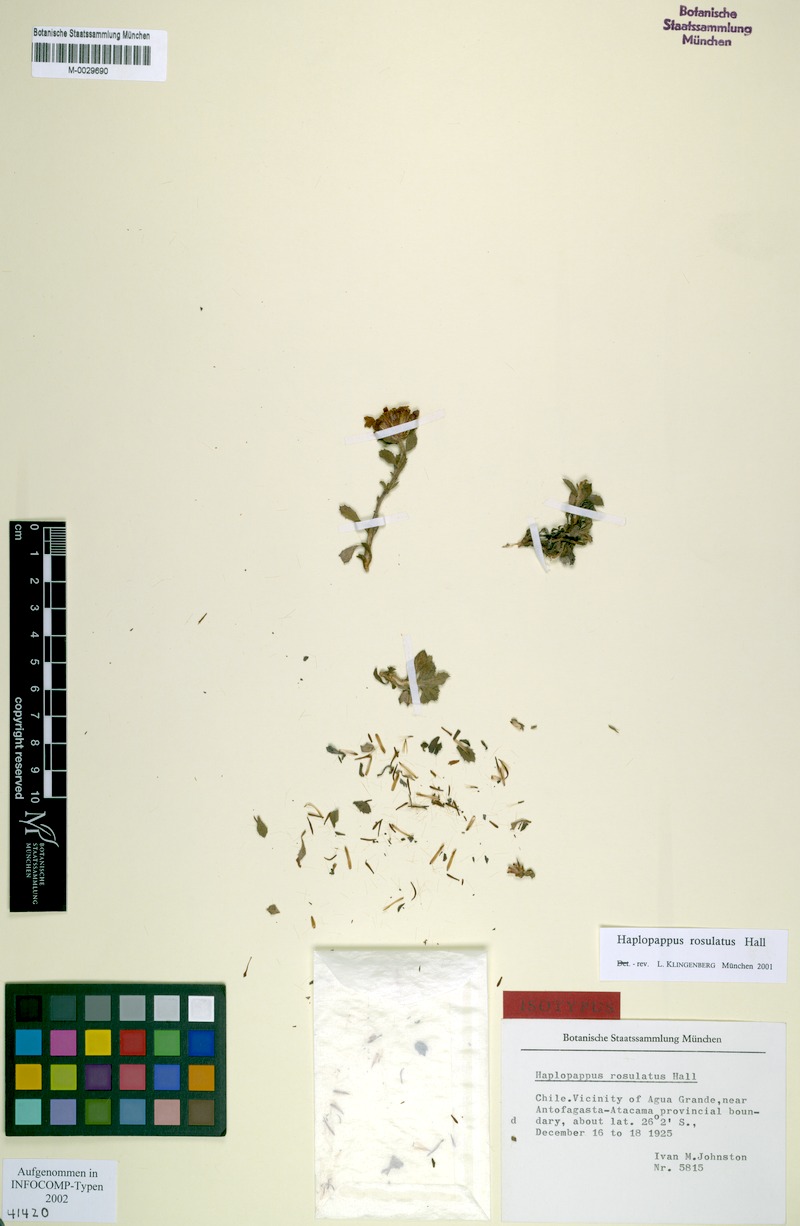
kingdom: Plantae
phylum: Tracheophyta
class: Magnoliopsida
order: Asterales
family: Asteraceae
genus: Haplopappus
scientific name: Haplopappus rosulatus
